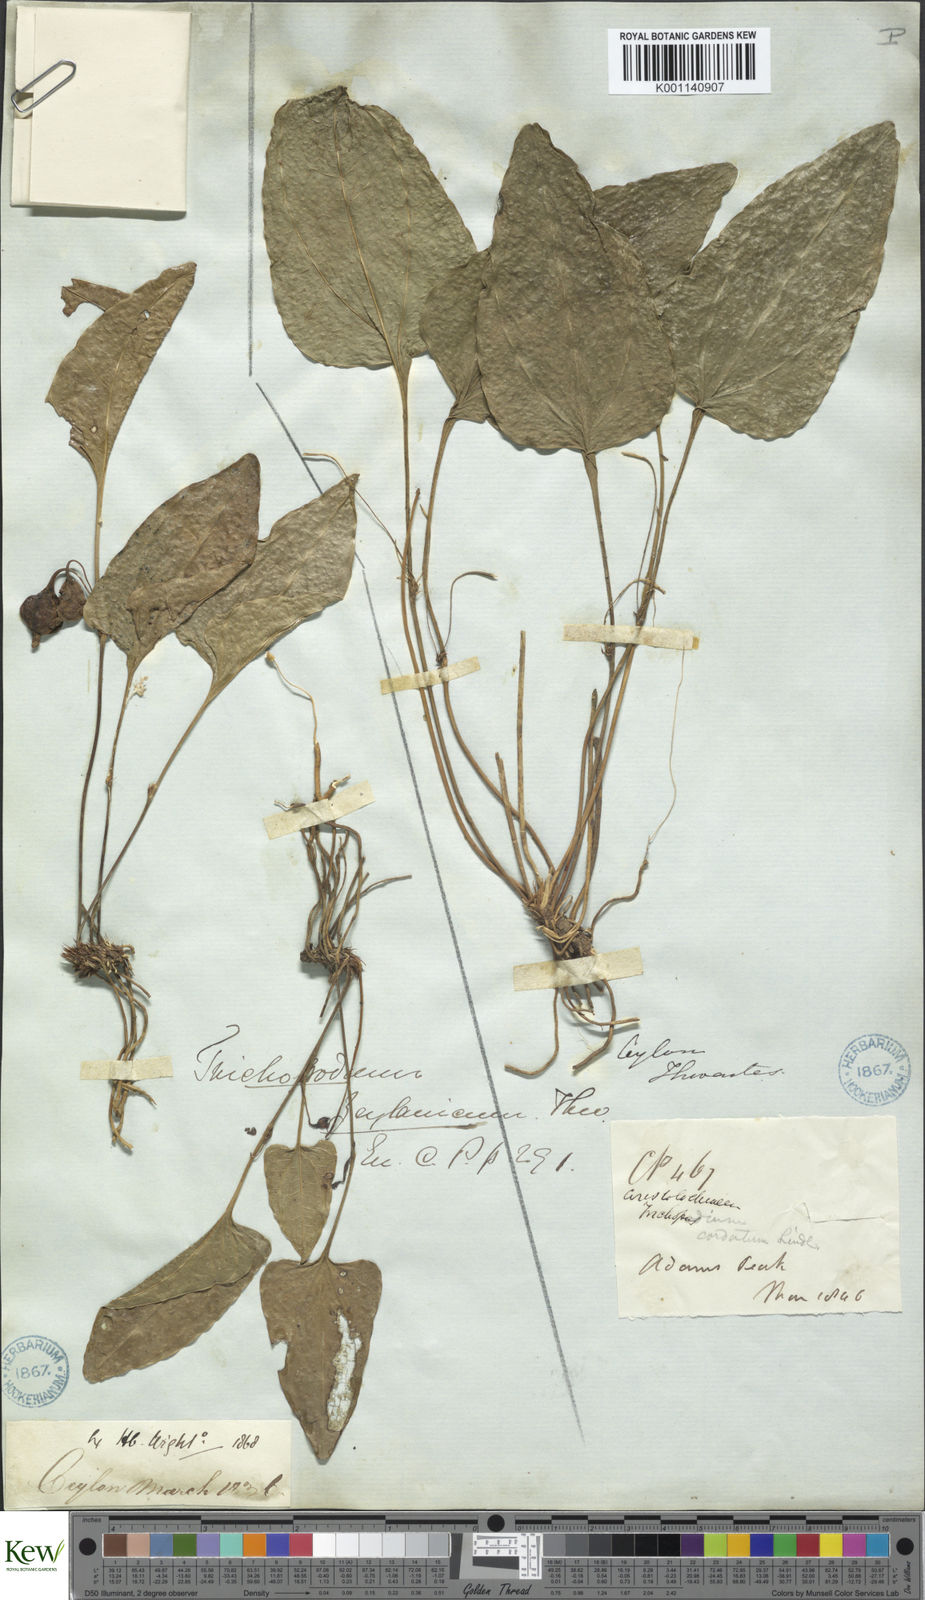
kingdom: Plantae
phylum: Tracheophyta
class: Liliopsida
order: Dioscoreales
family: Dioscoreaceae
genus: Trichopus
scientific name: Trichopus zeylanicus
